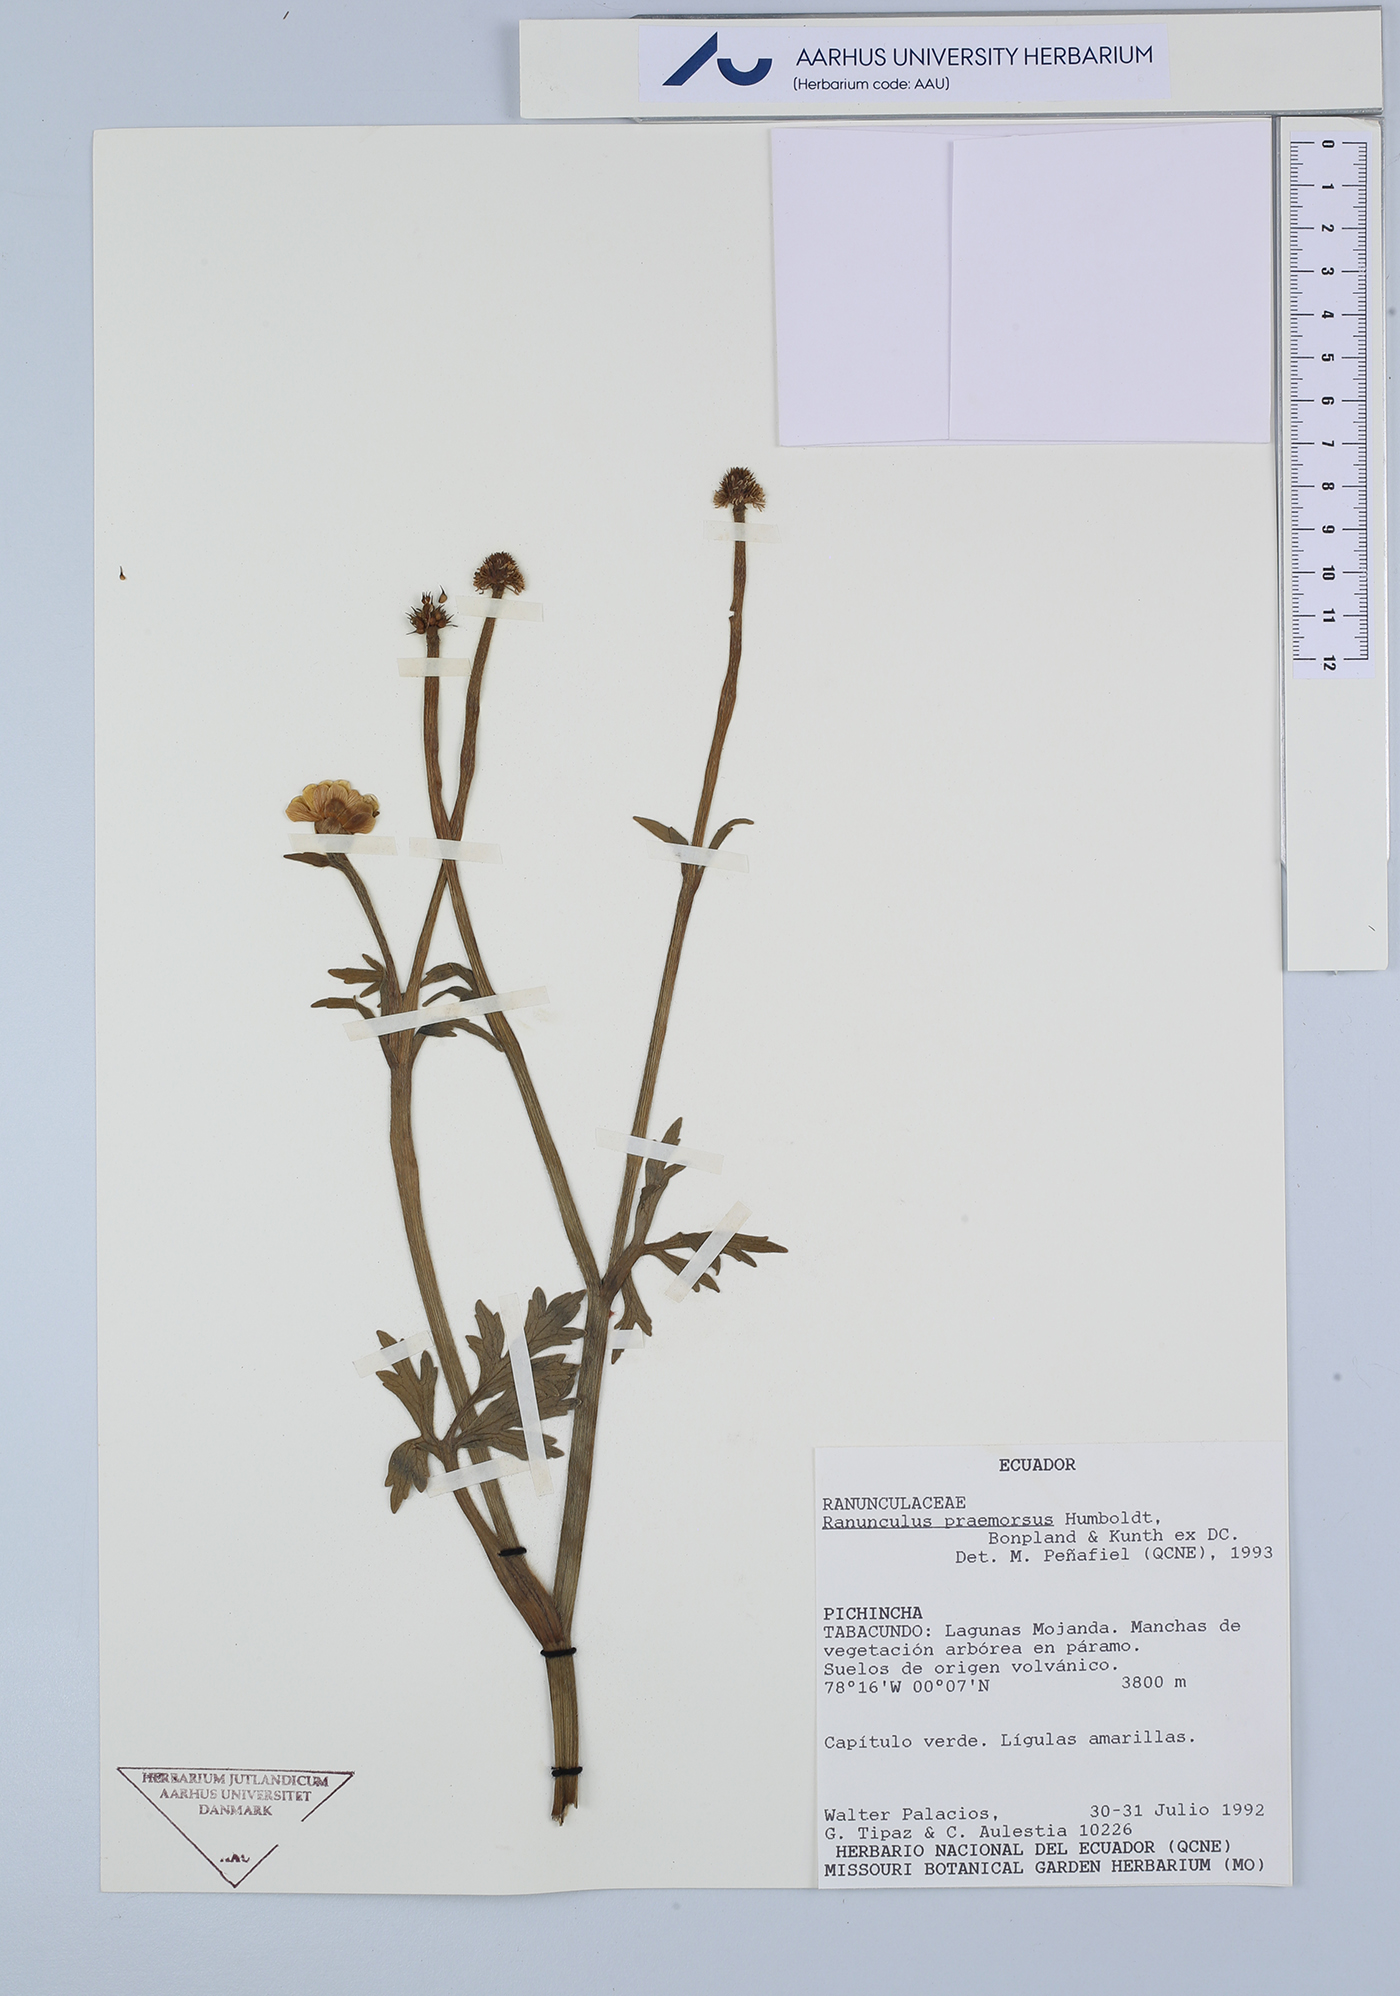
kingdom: Plantae
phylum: Tracheophyta
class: Magnoliopsida
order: Ranunculales
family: Ranunculaceae
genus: Ranunculus
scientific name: Ranunculus praemorsus
